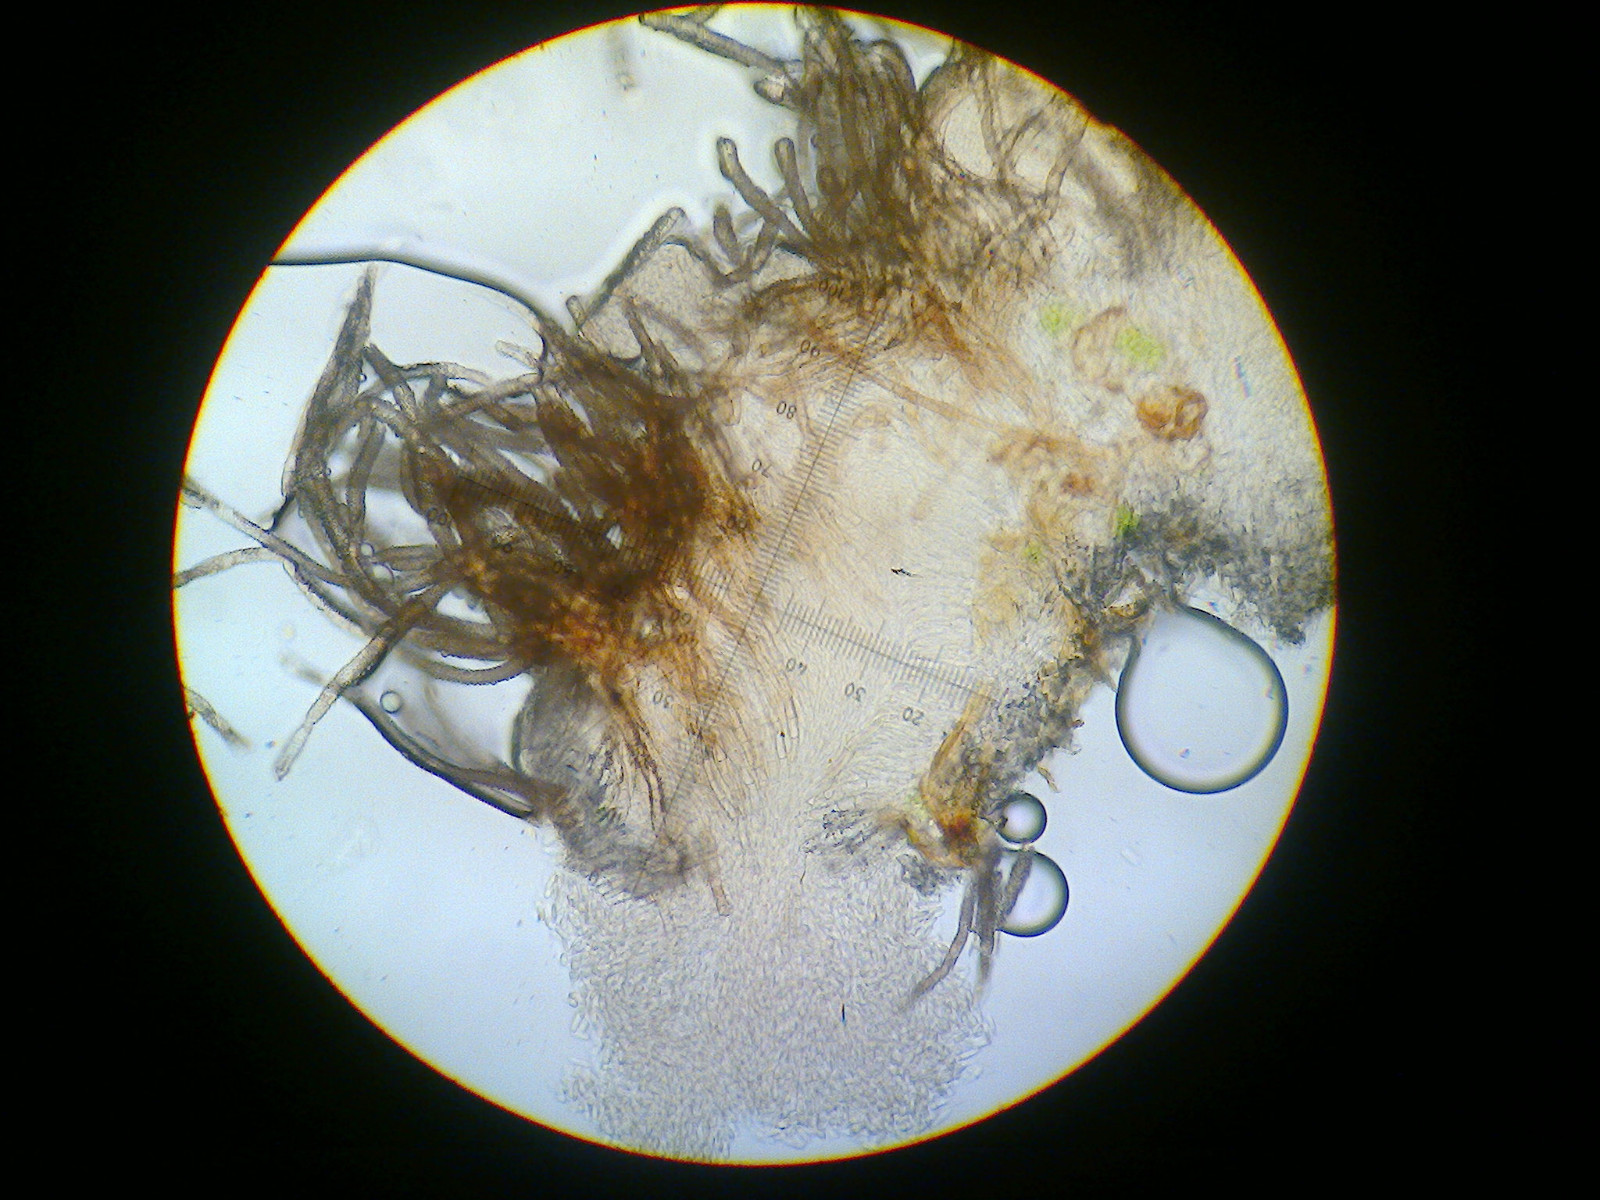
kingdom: Fungi
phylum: Ascomycota
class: Sordariomycetes
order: Hypocreales
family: Nectriaceae
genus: Sarcopodium
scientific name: Sarcopodium circinatum
